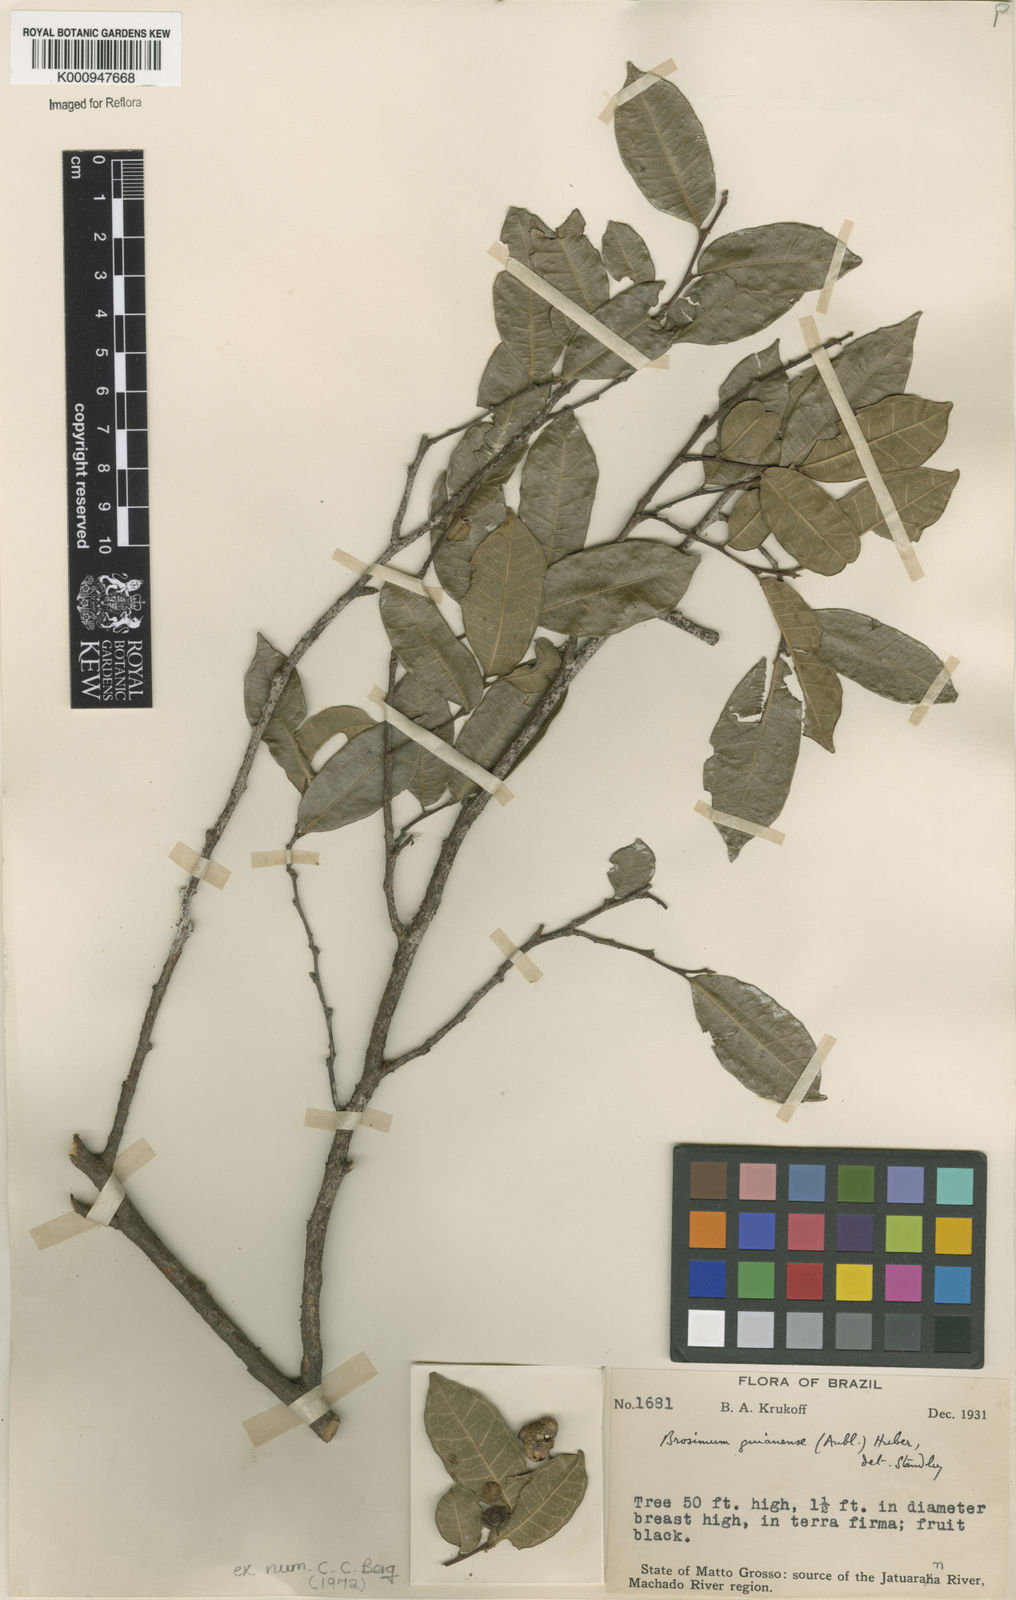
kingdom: Plantae
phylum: Tracheophyta
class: Magnoliopsida
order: Rosales
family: Moraceae
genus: Brosimum
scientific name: Brosimum
